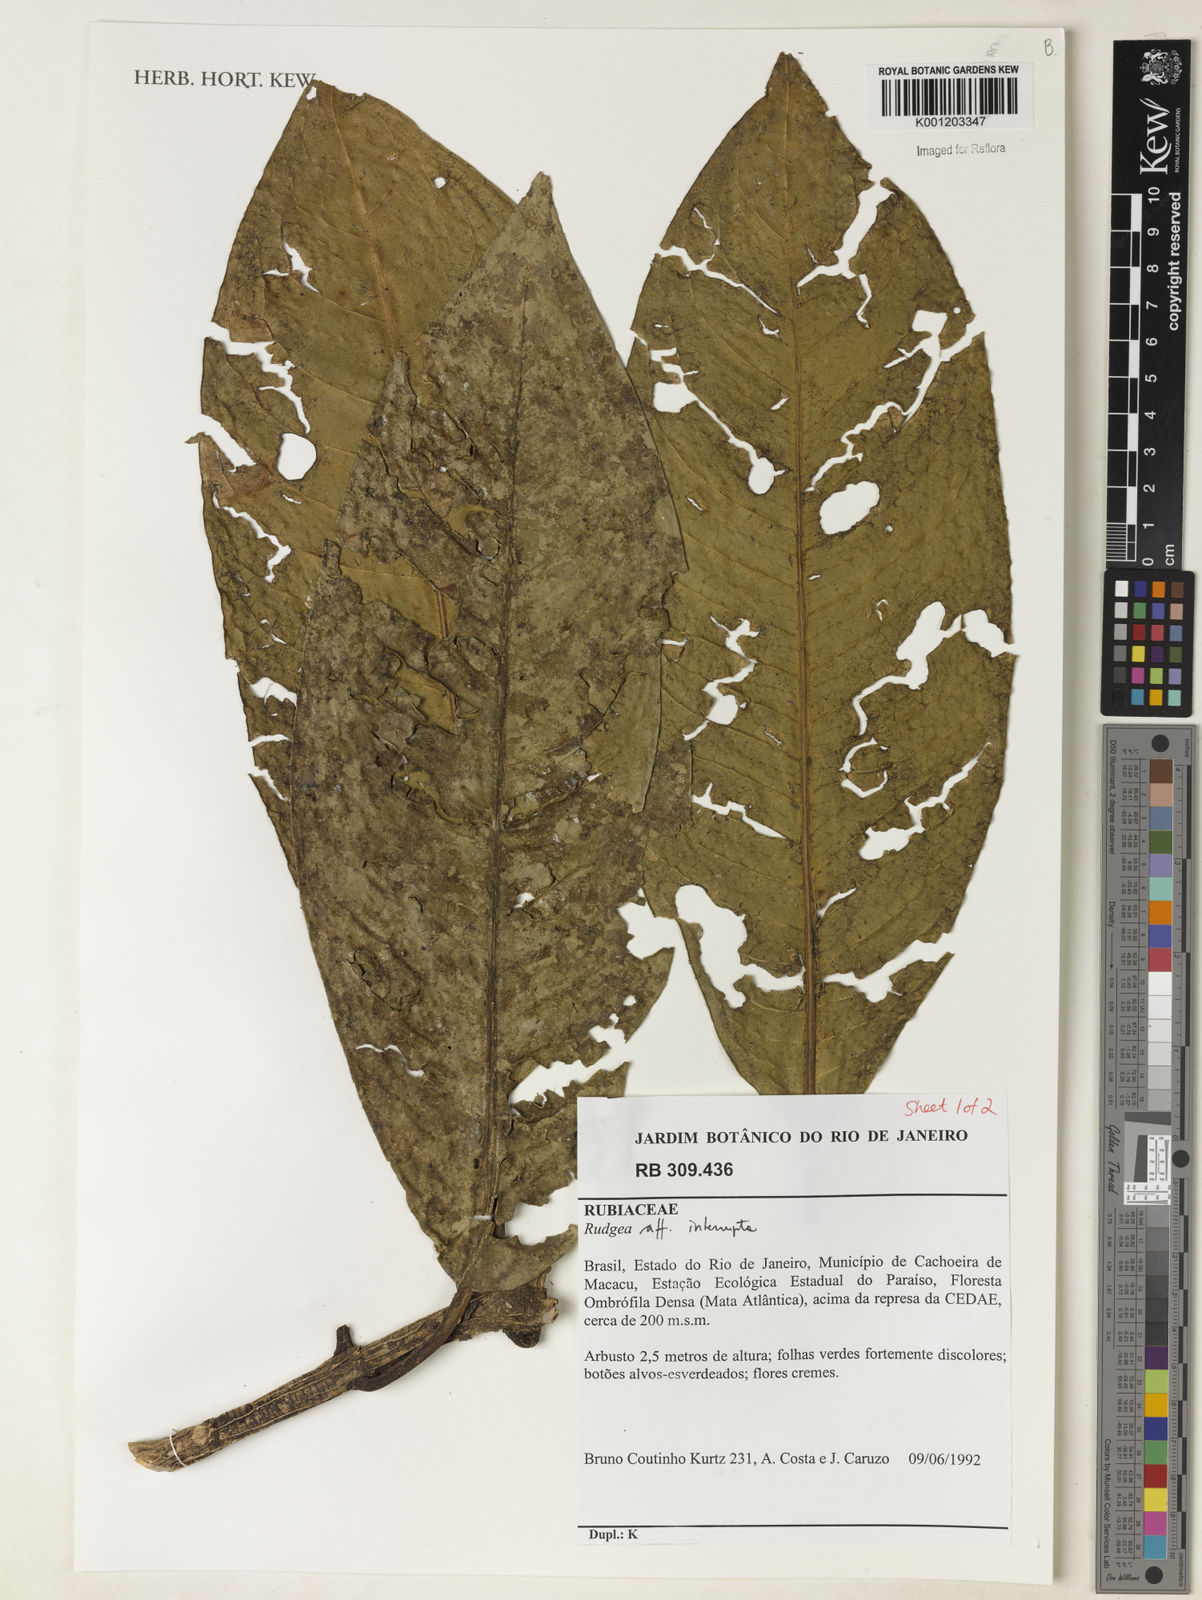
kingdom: Plantae
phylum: Tracheophyta
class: Magnoliopsida
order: Gentianales
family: Rubiaceae
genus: Rudgea
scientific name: Rudgea interrupta
